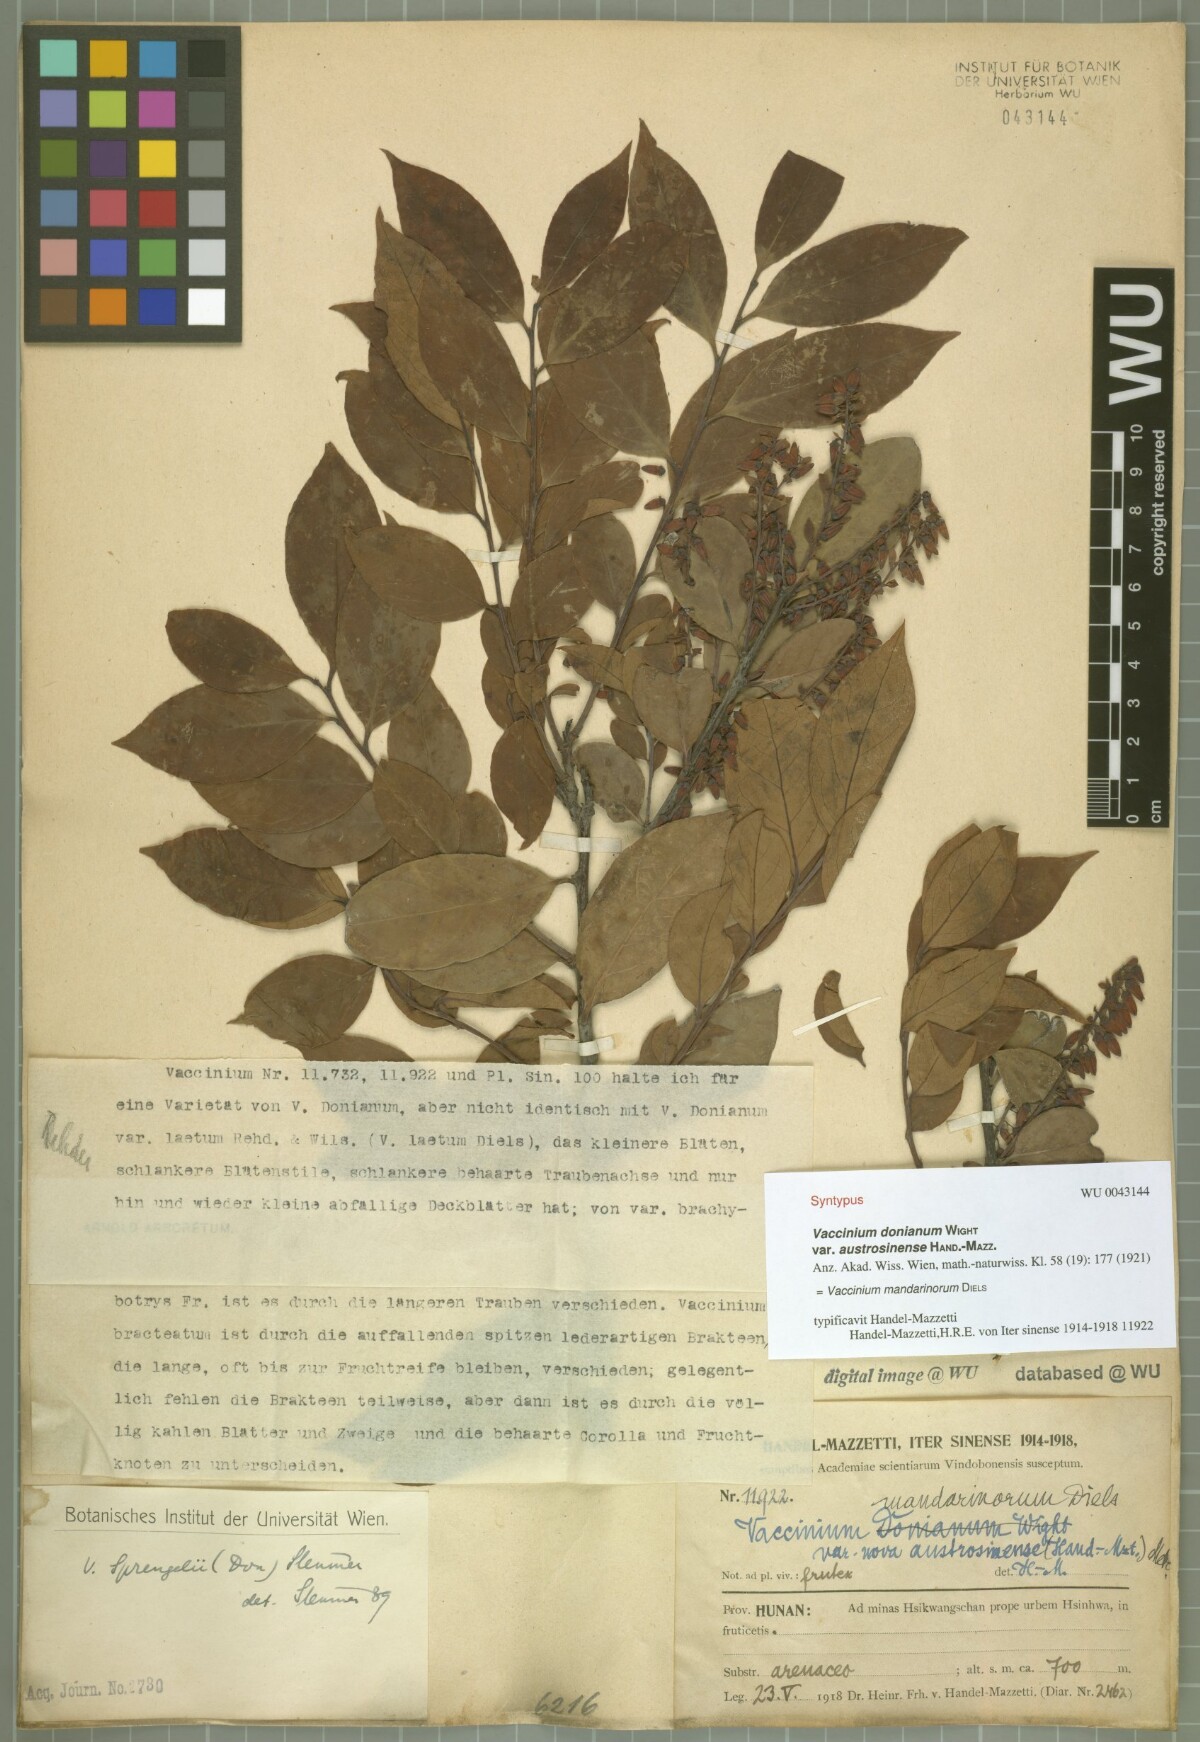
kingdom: Plantae
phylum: Tracheophyta
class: Magnoliopsida
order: Ericales
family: Ericaceae
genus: Vaccinium
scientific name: Vaccinium mandarinorum
